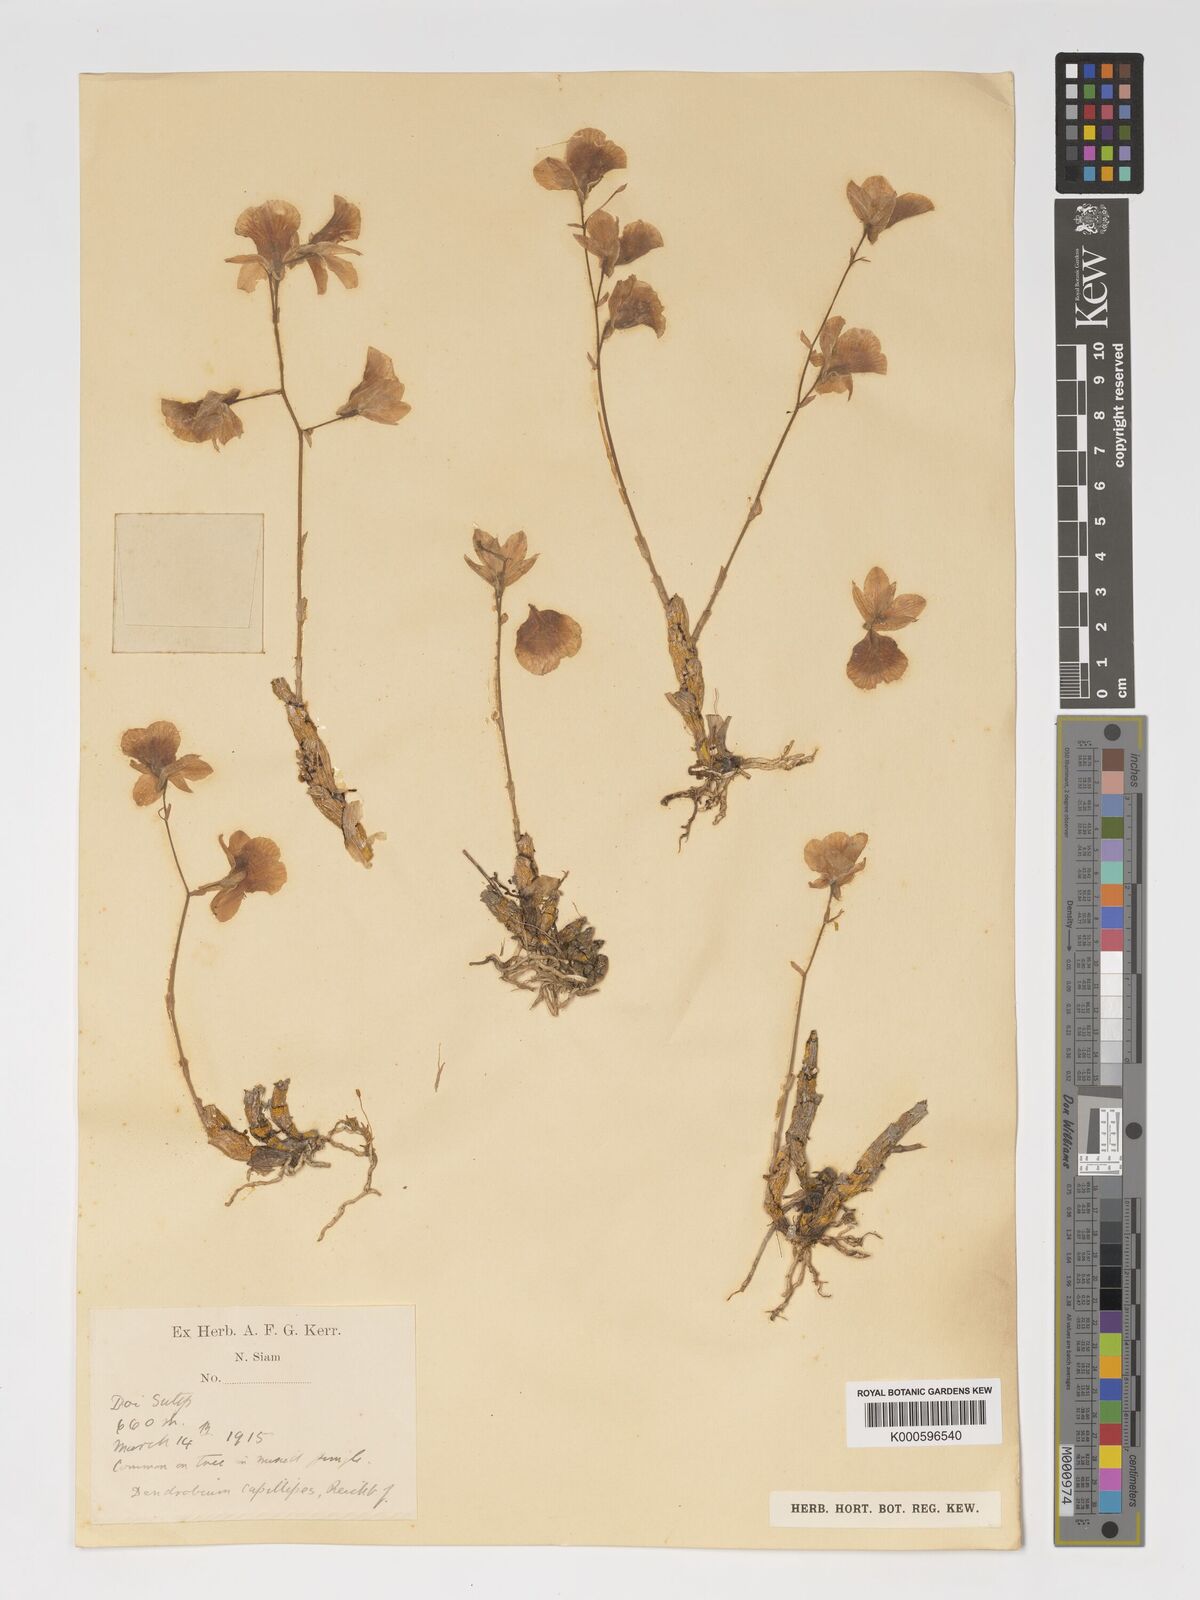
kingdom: Plantae
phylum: Tracheophyta
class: Liliopsida
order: Asparagales
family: Orchidaceae
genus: Dendrobium
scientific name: Dendrobium capillipes
